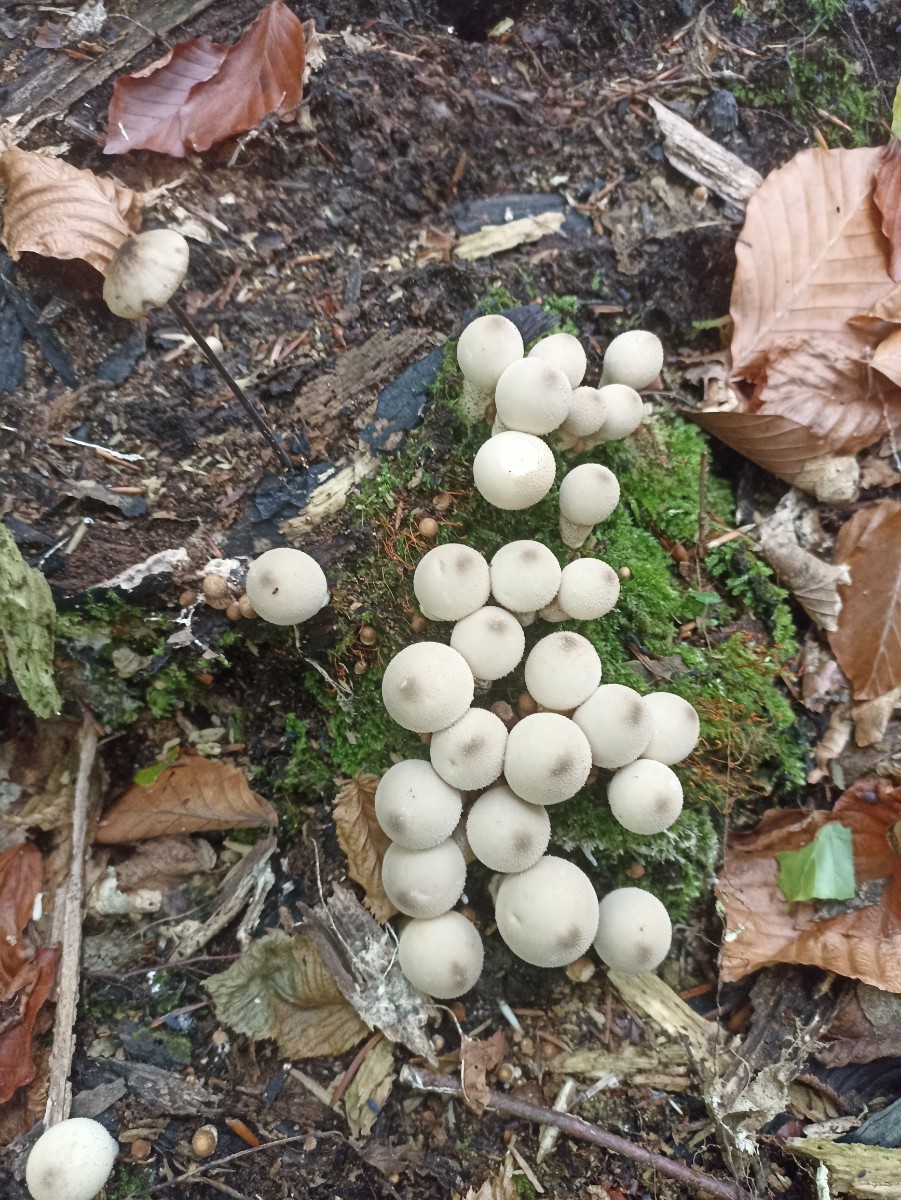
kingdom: Fungi
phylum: Basidiomycota
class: Agaricomycetes
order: Agaricales
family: Lycoperdaceae
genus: Apioperdon
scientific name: Apioperdon pyriforme
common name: pære-støvbold
